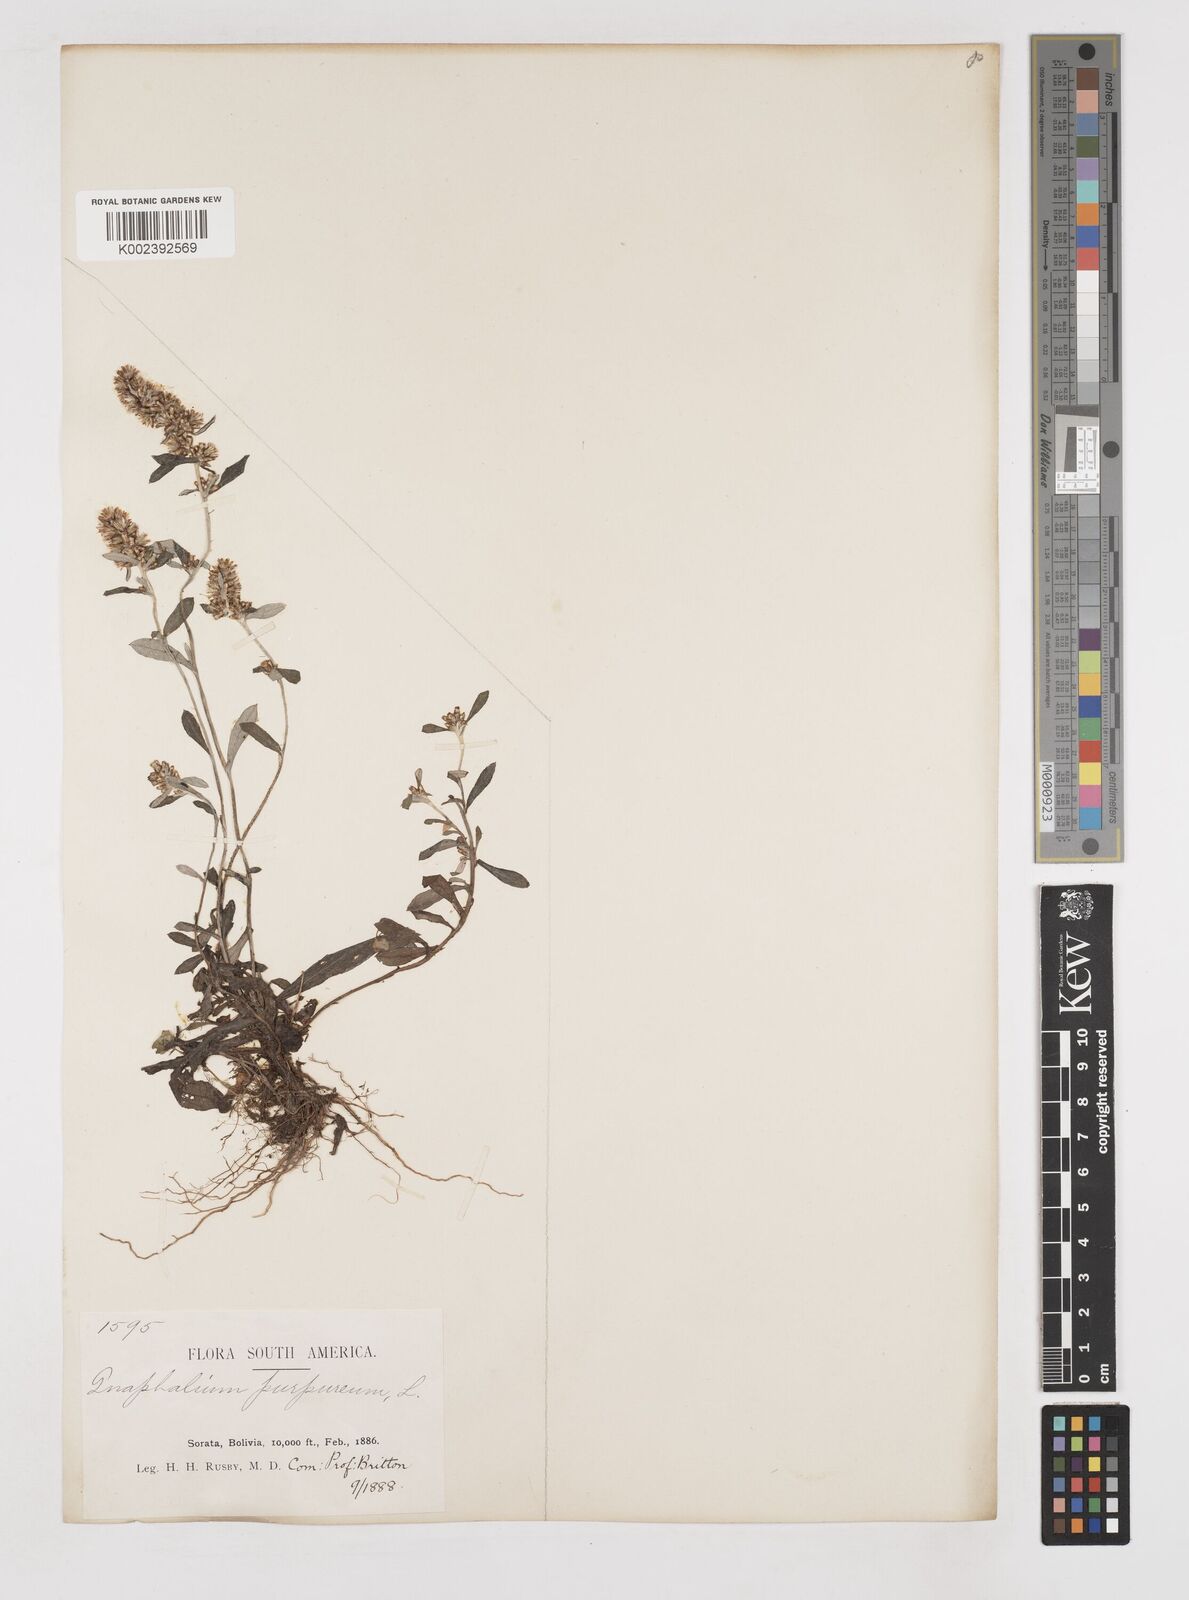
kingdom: Plantae
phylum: Tracheophyta
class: Magnoliopsida
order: Asterales
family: Asteraceae
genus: Pseudognaphalium
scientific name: Pseudognaphalium purpurascens
